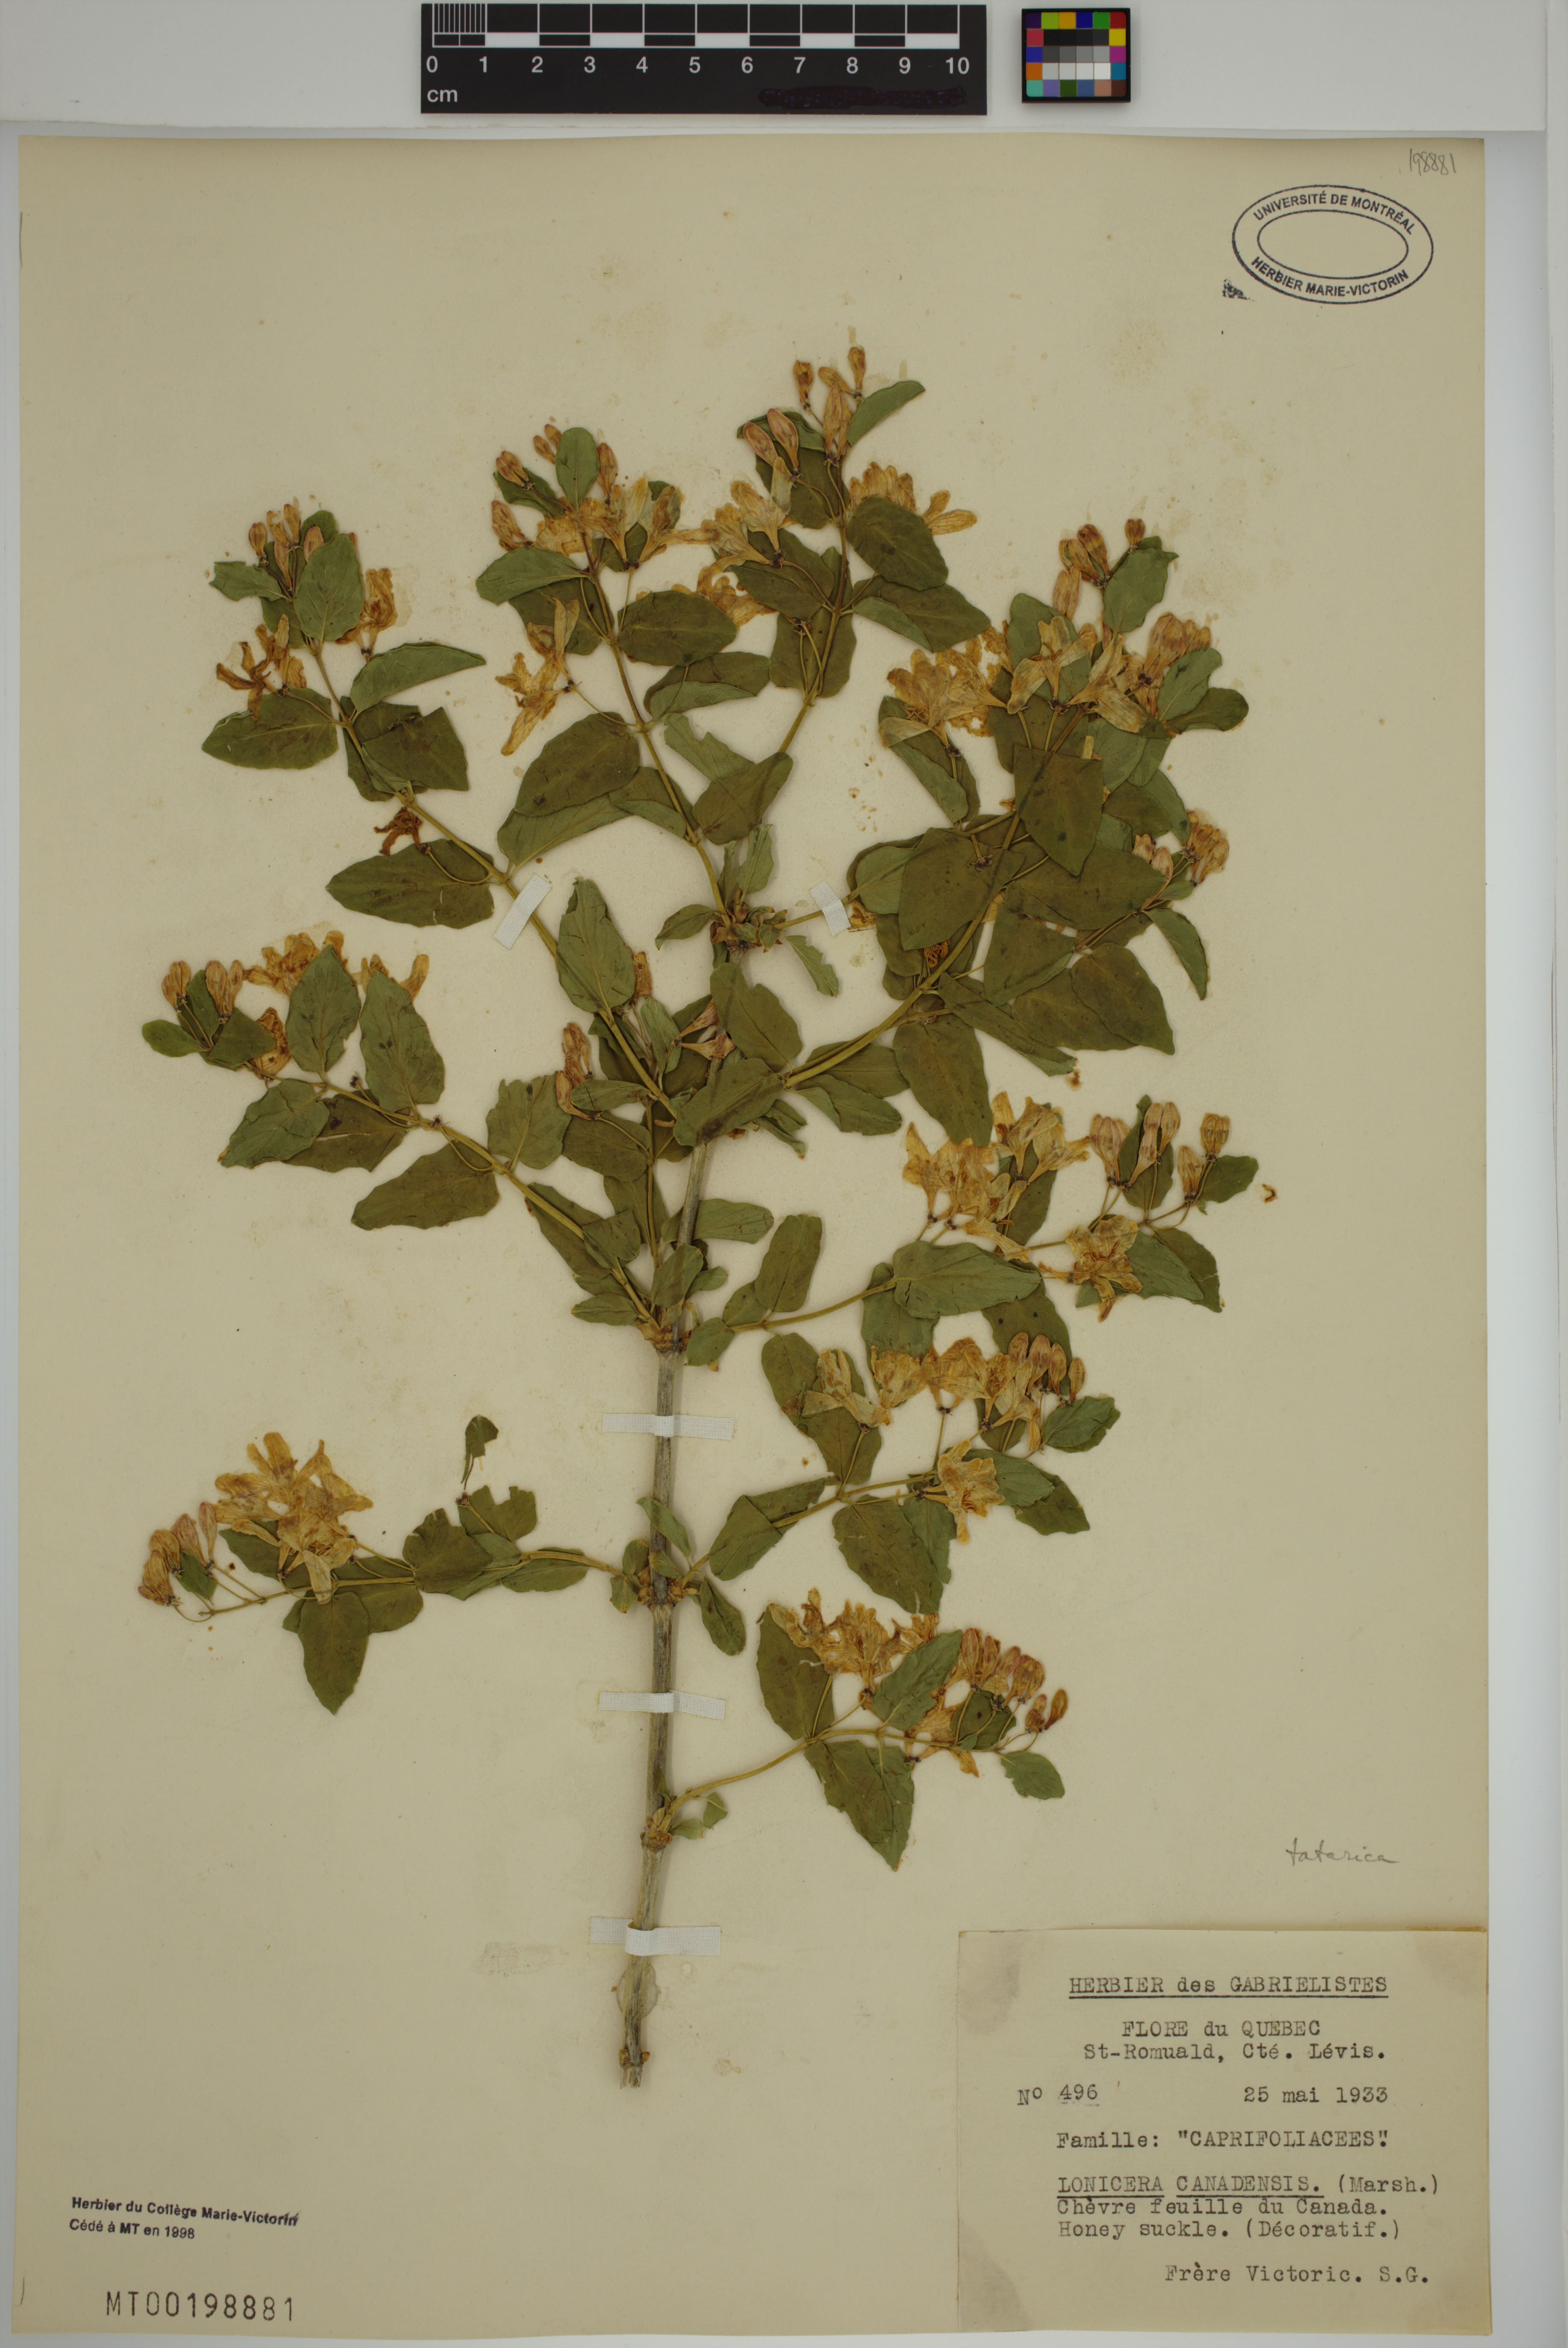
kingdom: Plantae
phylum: Tracheophyta
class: Magnoliopsida
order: Dipsacales
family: Caprifoliaceae
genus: Lonicera
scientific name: Lonicera tatarica
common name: Tatarian honeysuckle
